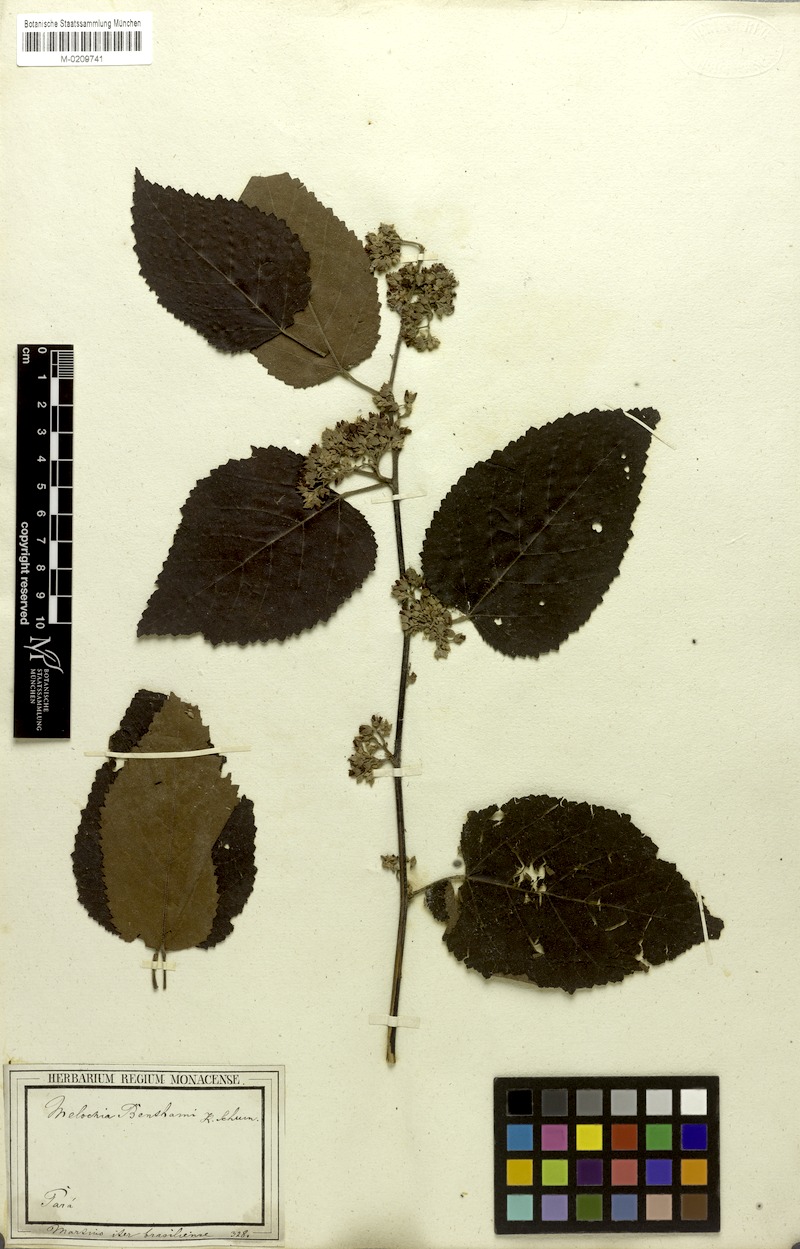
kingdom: Plantae
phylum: Tracheophyta
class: Magnoliopsida
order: Malvales
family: Malvaceae
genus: Melochia
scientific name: Melochia ulmifolia
